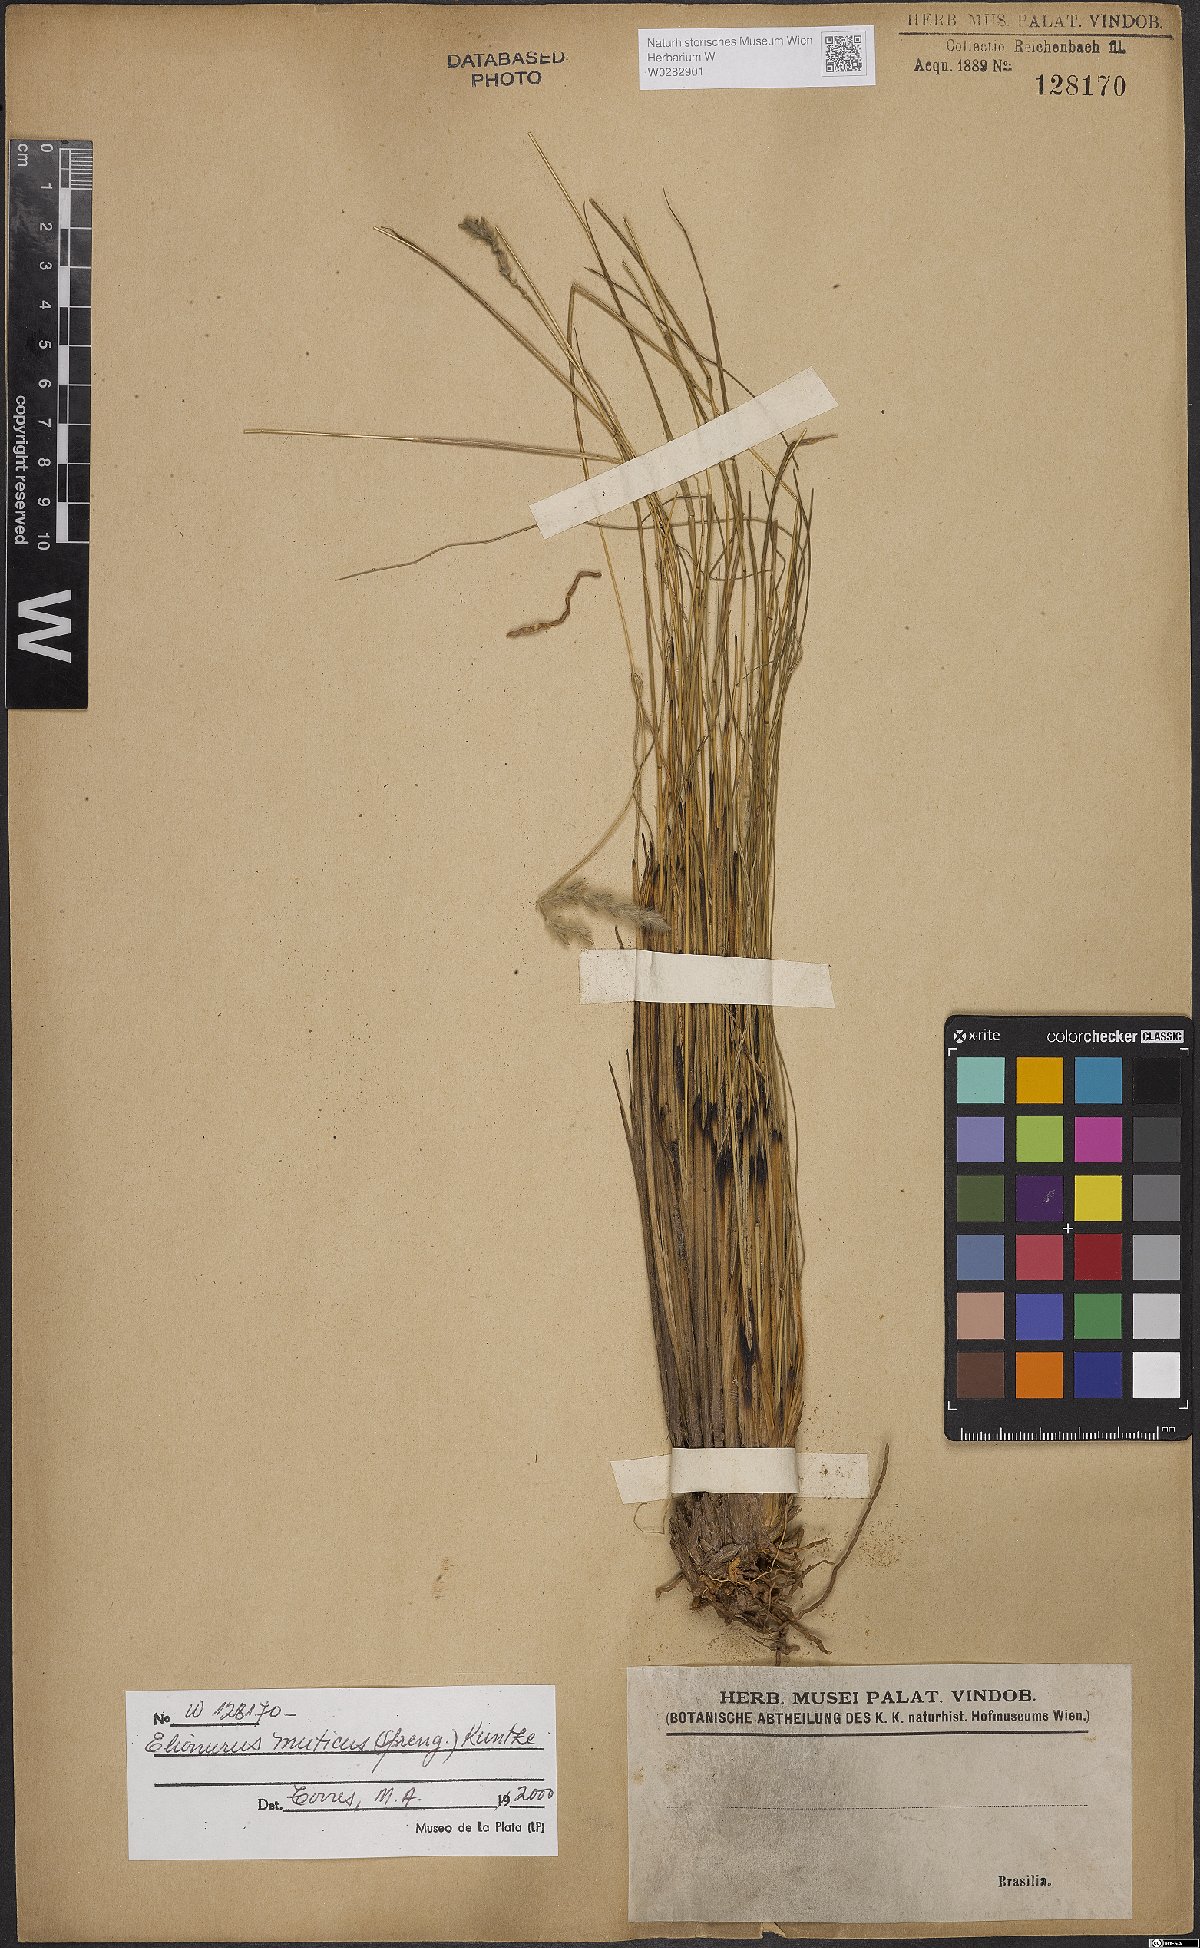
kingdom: Plantae
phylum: Tracheophyta
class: Liliopsida
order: Poales
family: Poaceae
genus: Elionurus
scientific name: Elionurus muticus
